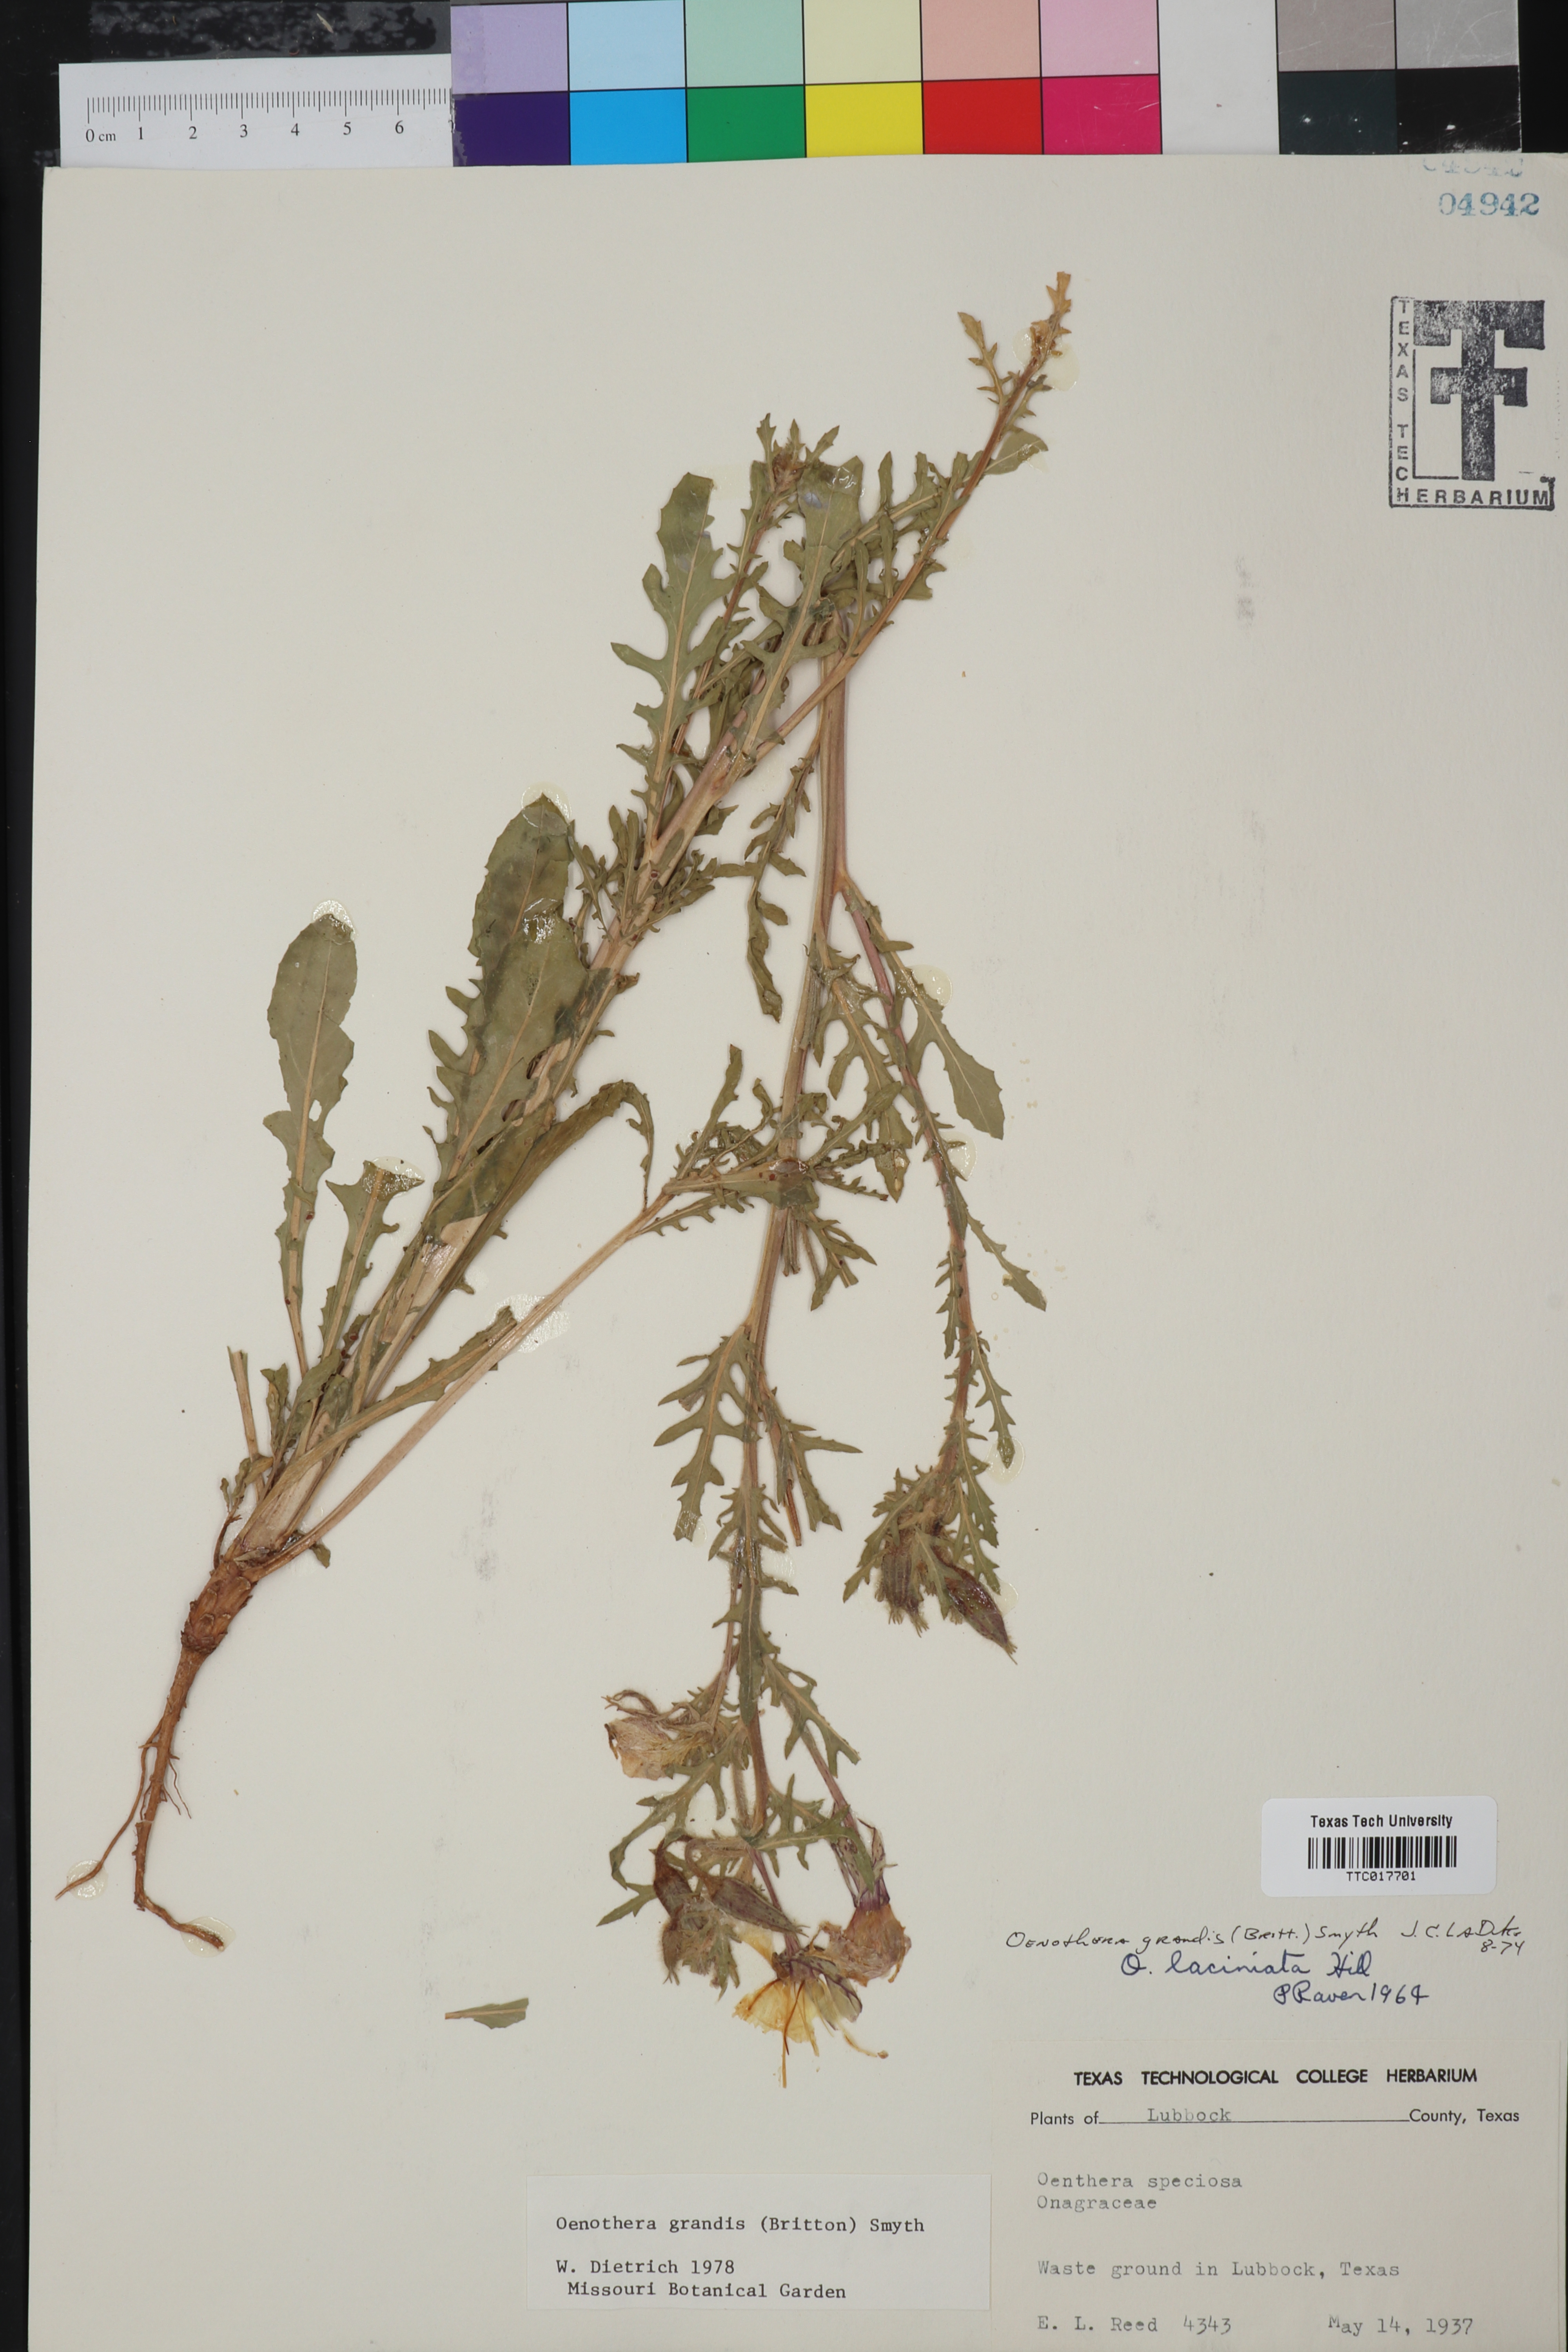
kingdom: Plantae
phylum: Tracheophyta
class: Magnoliopsida
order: Myrtales
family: Onagraceae
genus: Oenothera
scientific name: Oenothera grandis
